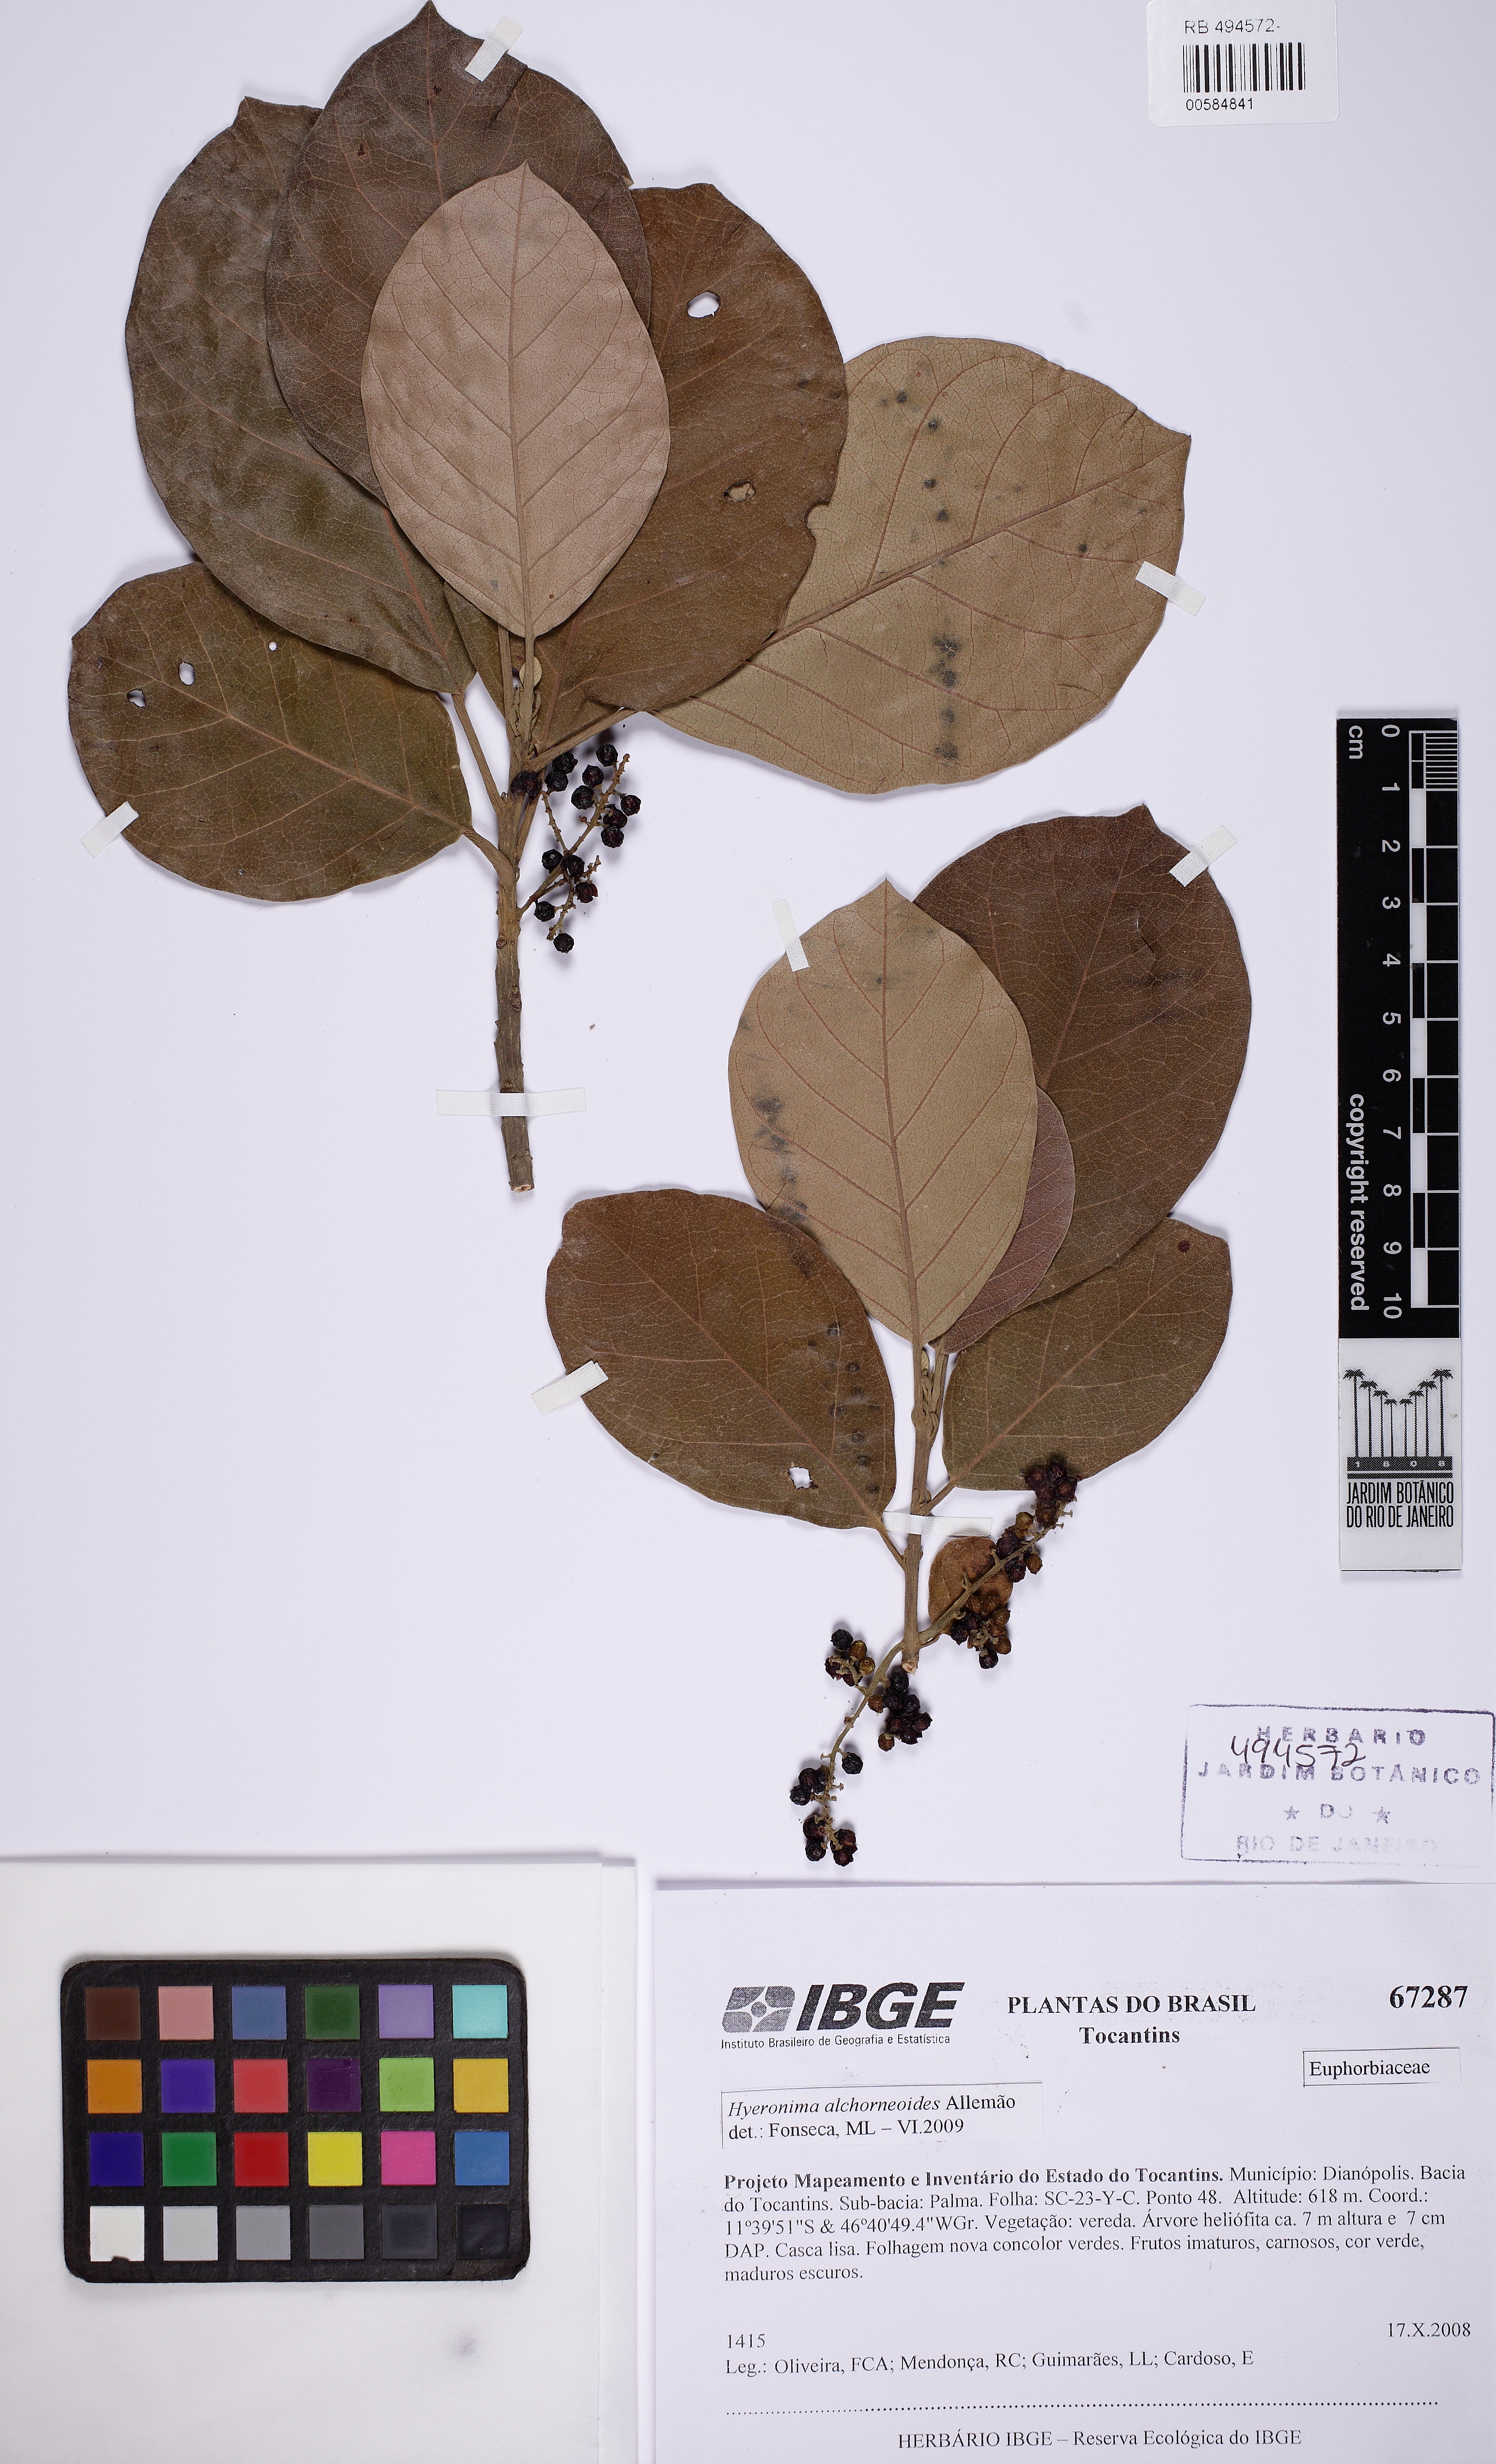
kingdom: Plantae
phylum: Tracheophyta
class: Magnoliopsida
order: Malpighiales
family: Phyllanthaceae
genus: Hieronyma
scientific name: Hieronyma alchorneoides
